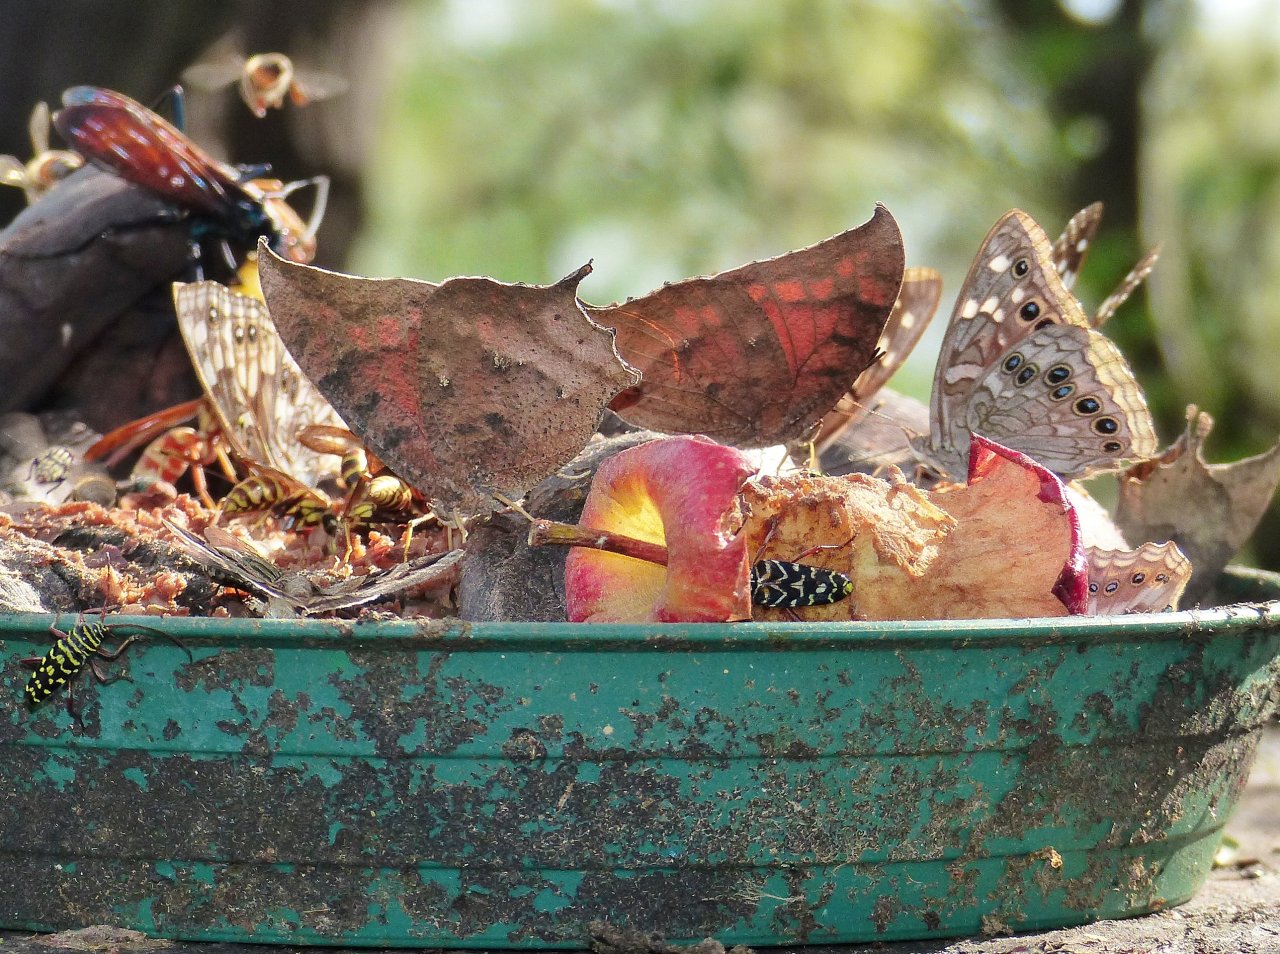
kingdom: Animalia
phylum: Arthropoda
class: Insecta
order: Lepidoptera
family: Nymphalidae
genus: Anaea
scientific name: Anaea aidea
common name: Tropical Leafwing
